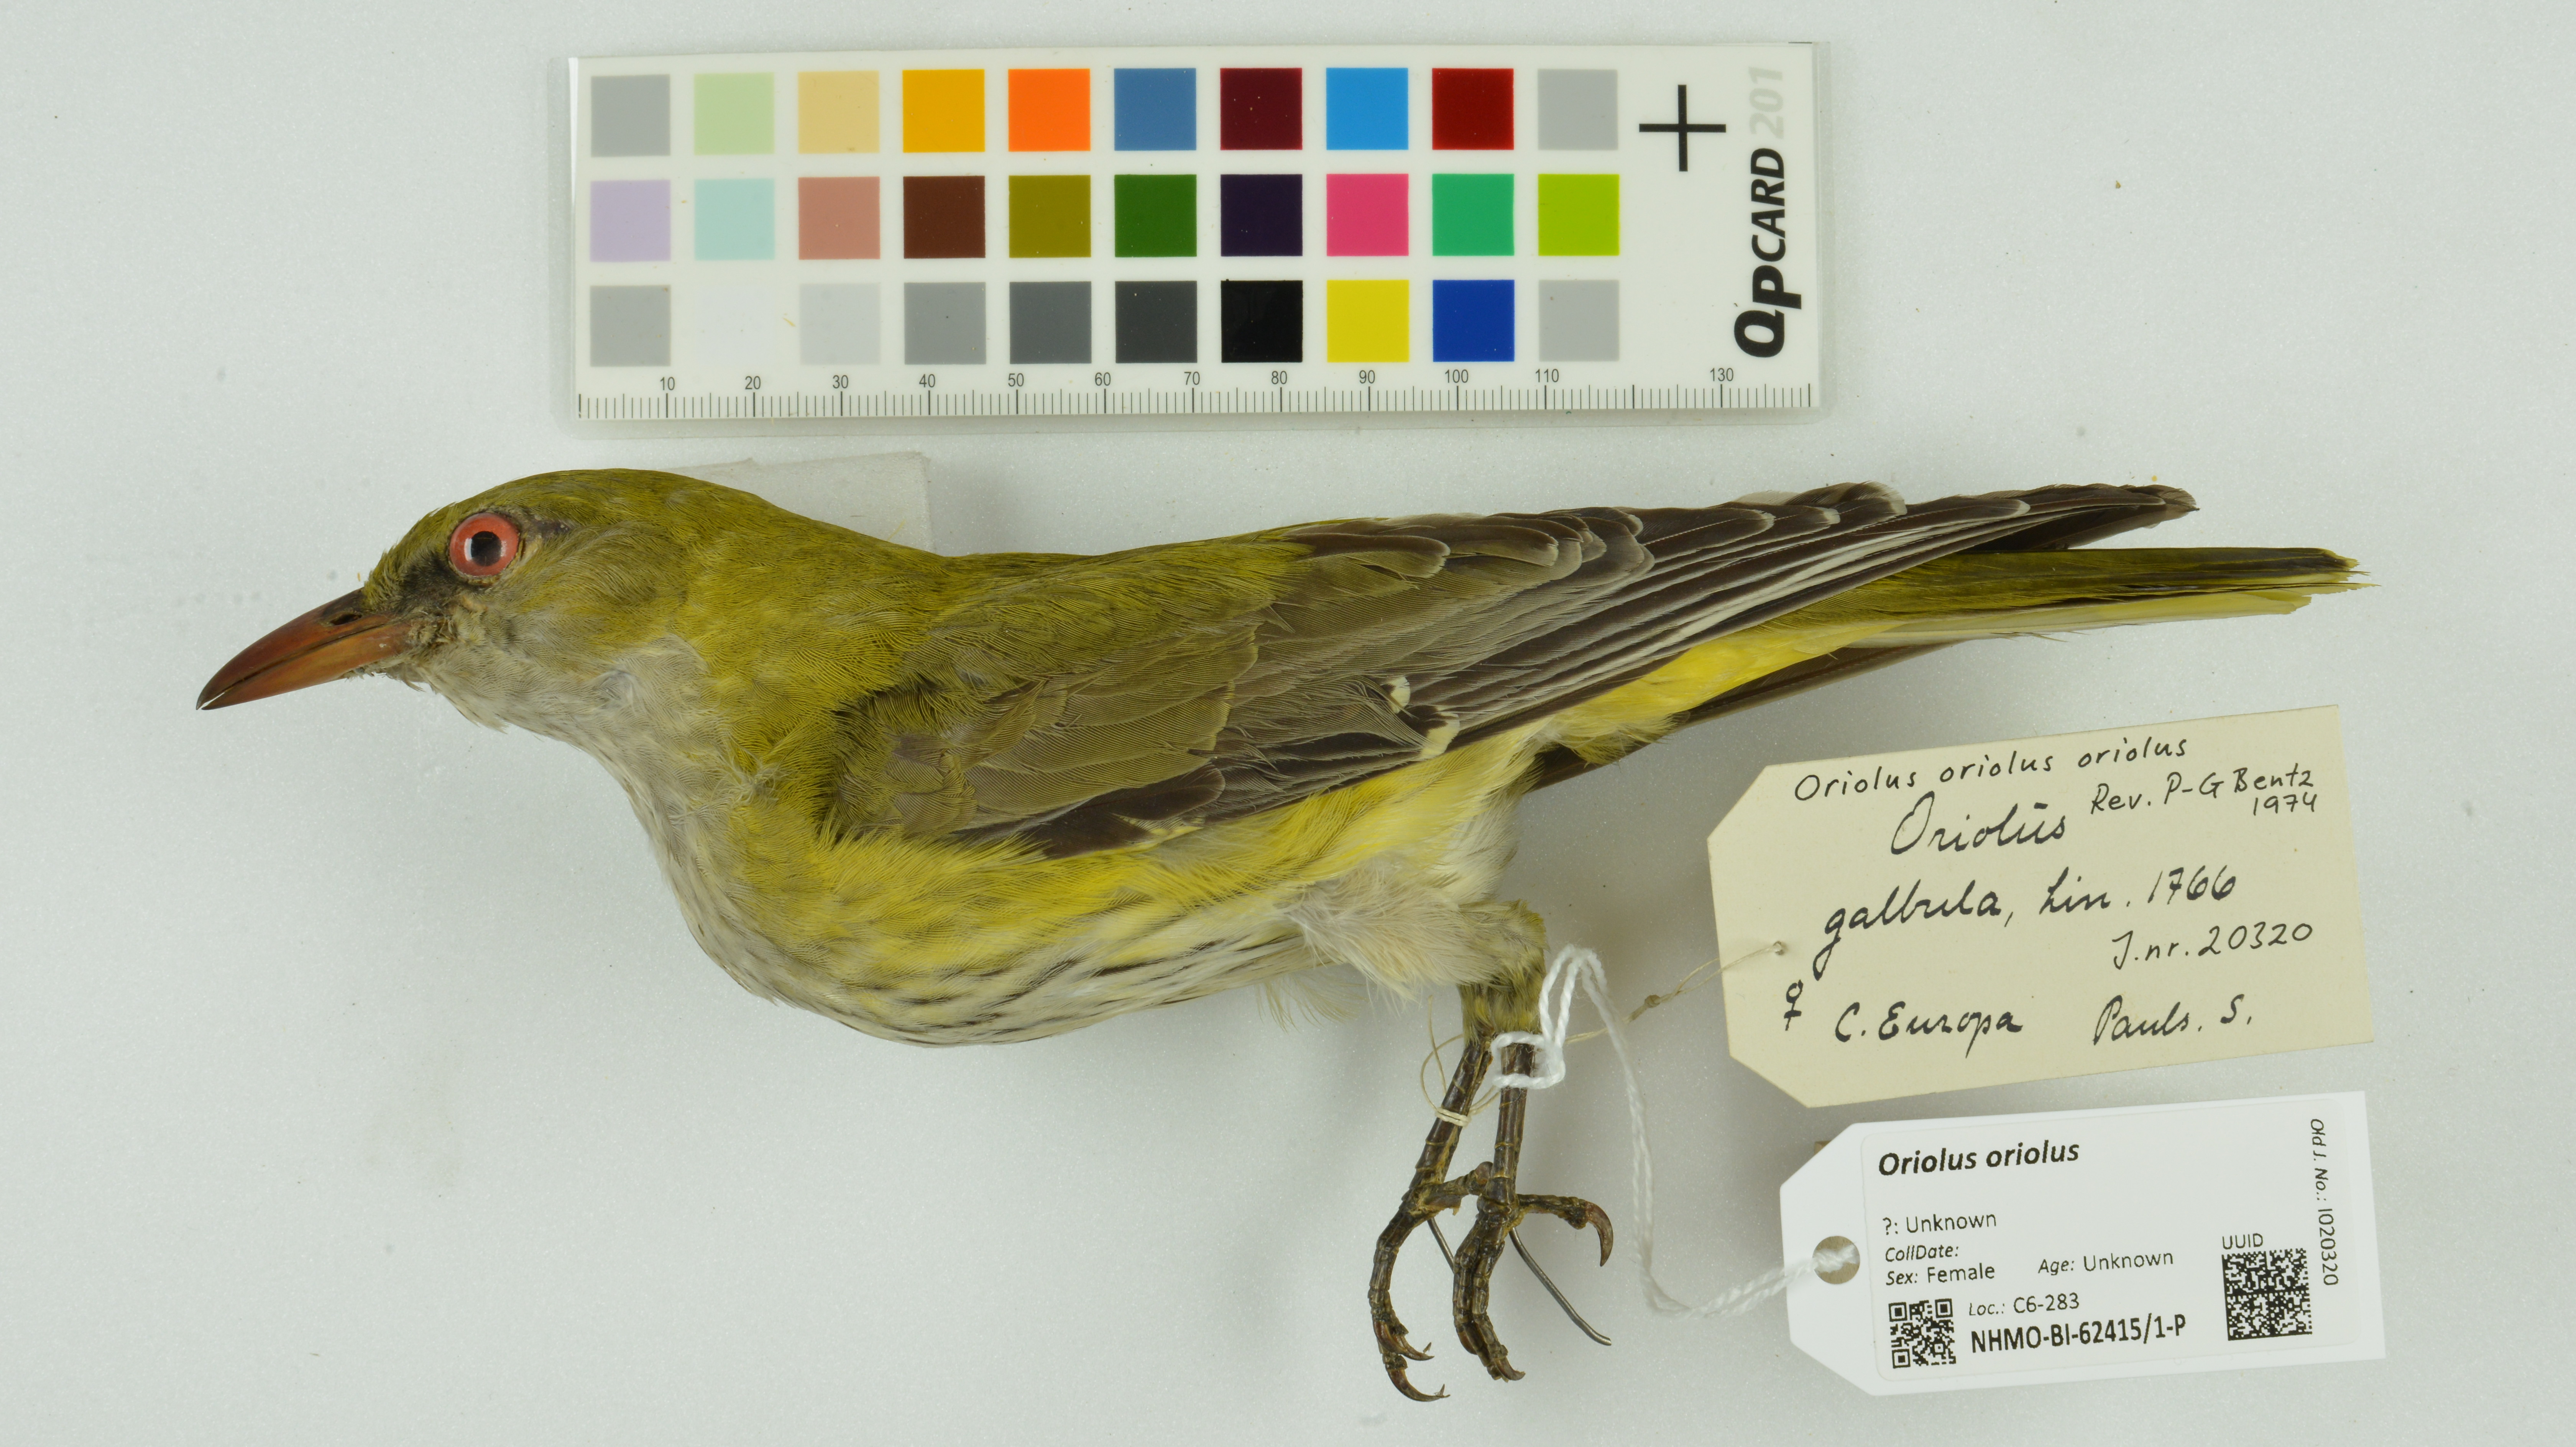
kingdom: Animalia
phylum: Chordata
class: Aves
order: Passeriformes
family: Oriolidae
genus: Oriolus
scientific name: Oriolus oriolus
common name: Eurasian golden oriole
